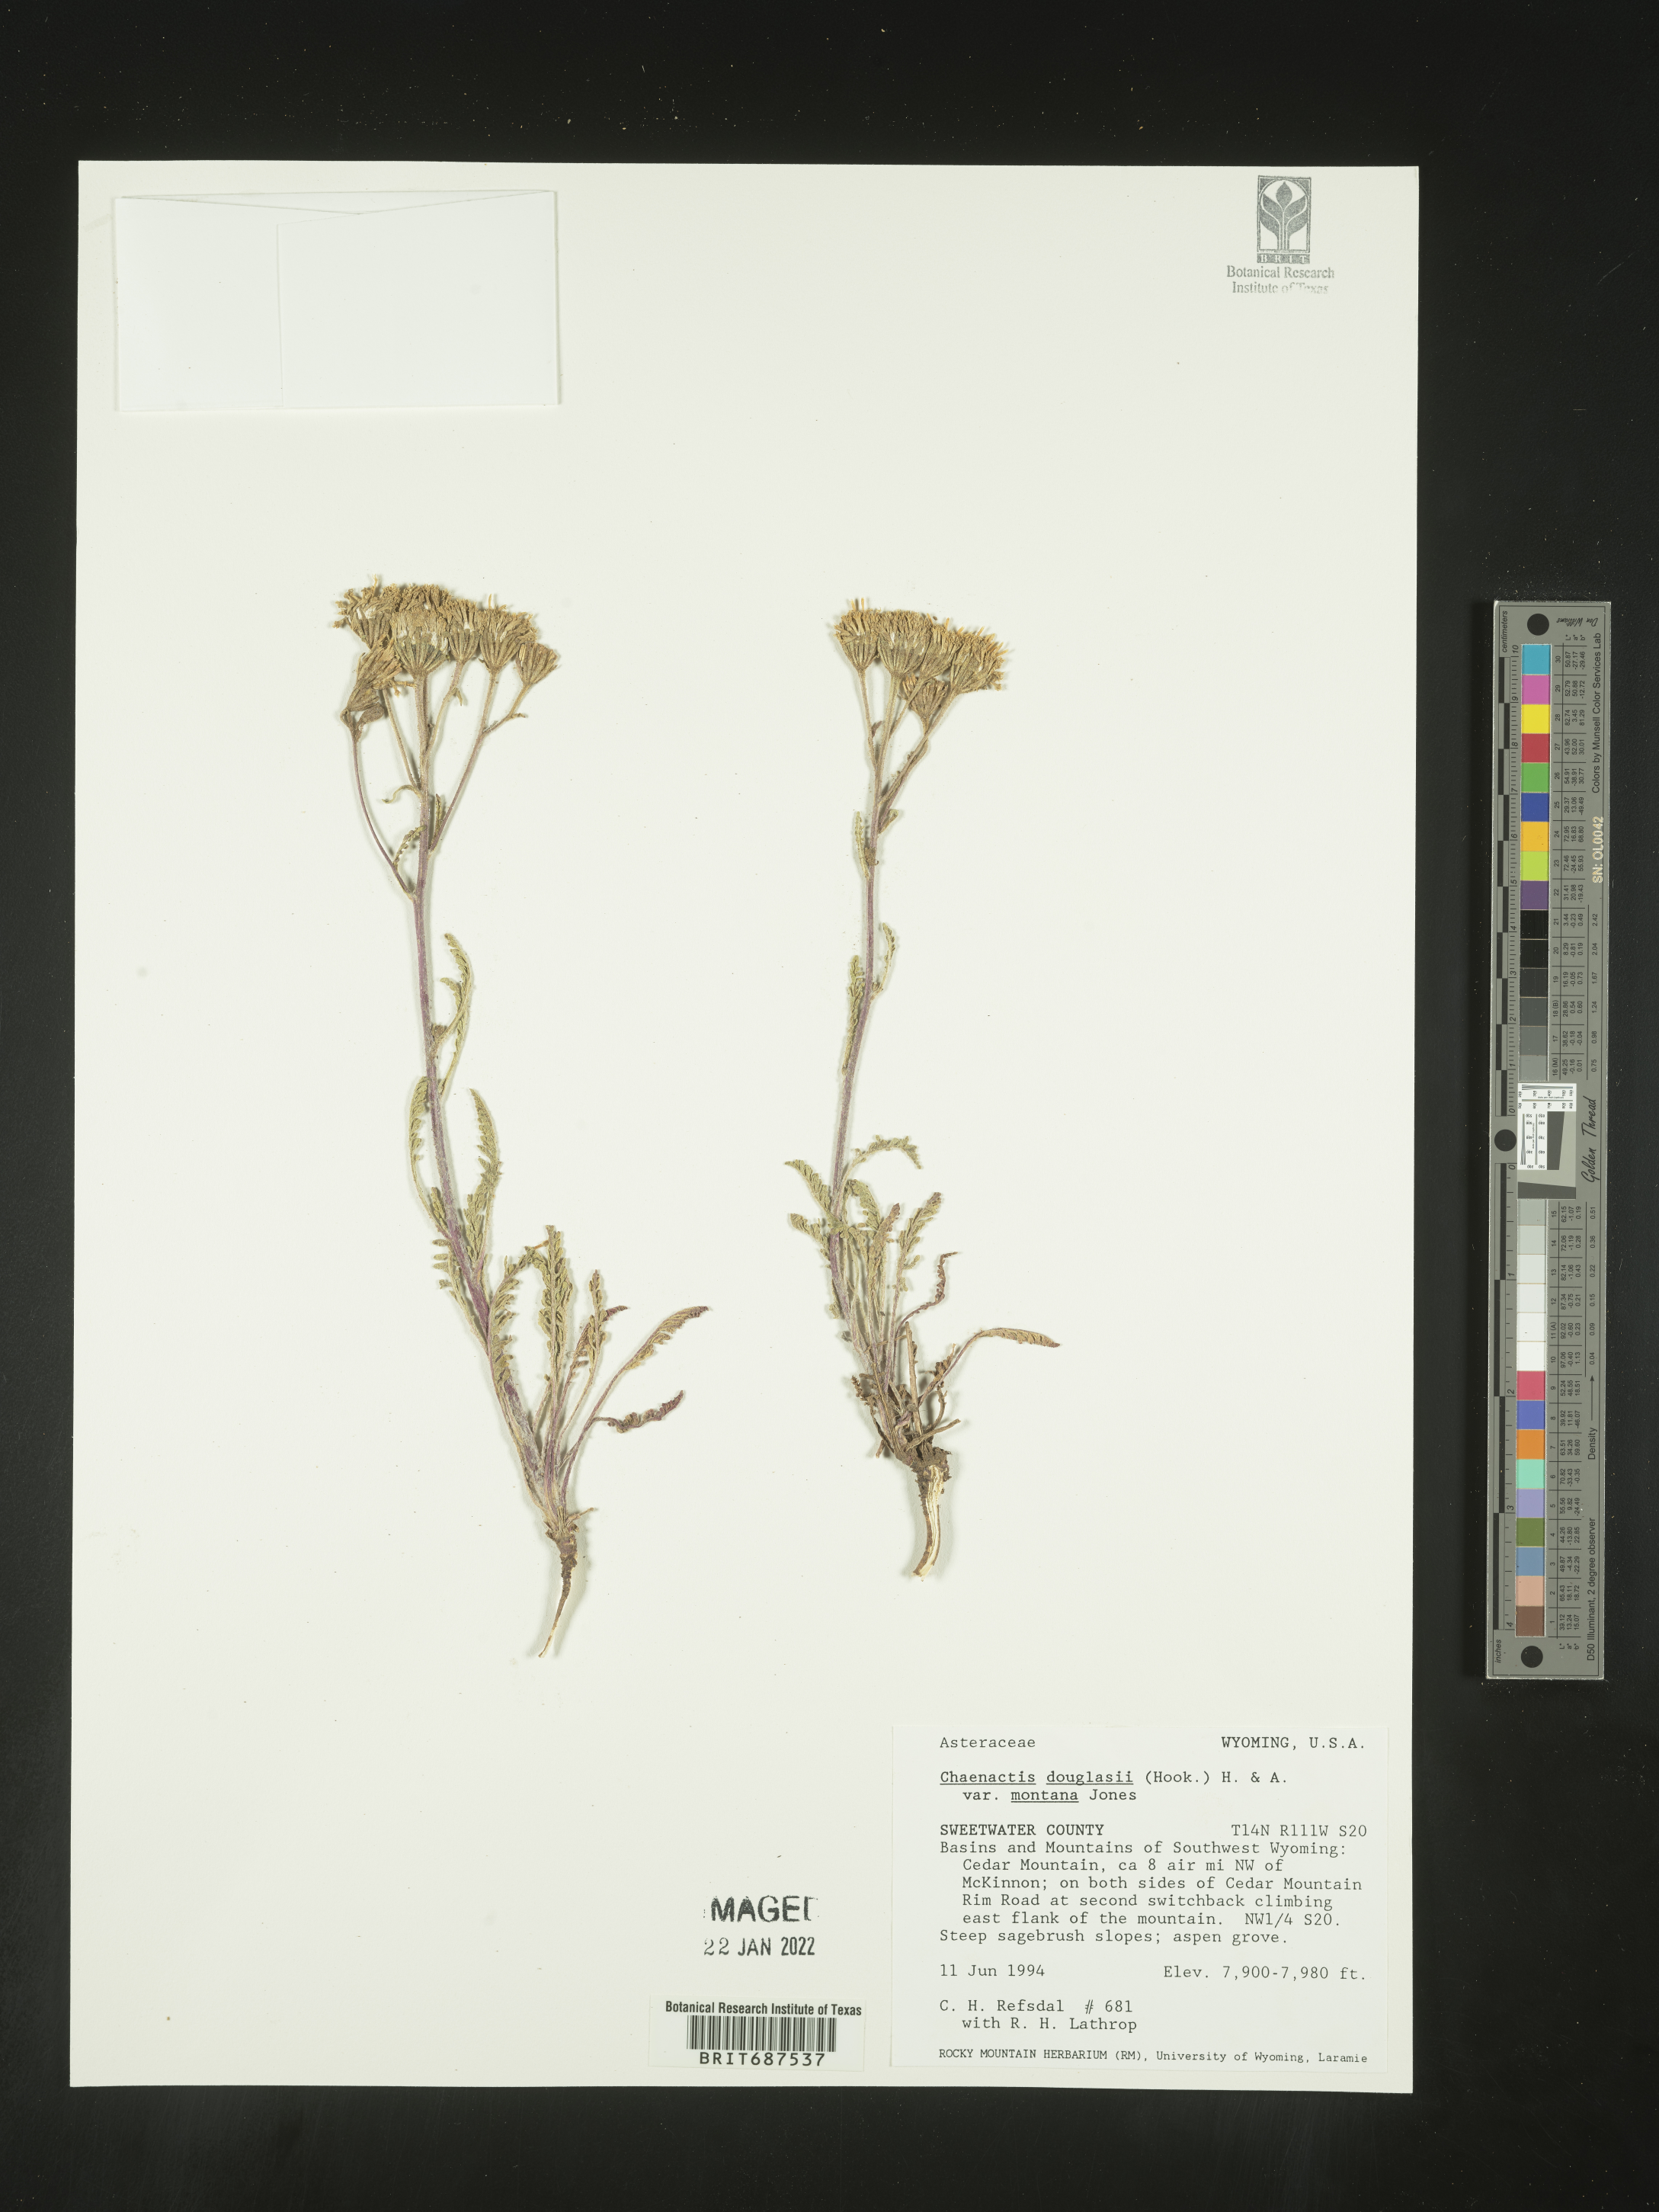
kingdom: Plantae
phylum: Tracheophyta
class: Magnoliopsida
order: Asterales
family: Asteraceae
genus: Chaenactis
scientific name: Chaenactis douglasii
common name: Hoary pincushion
